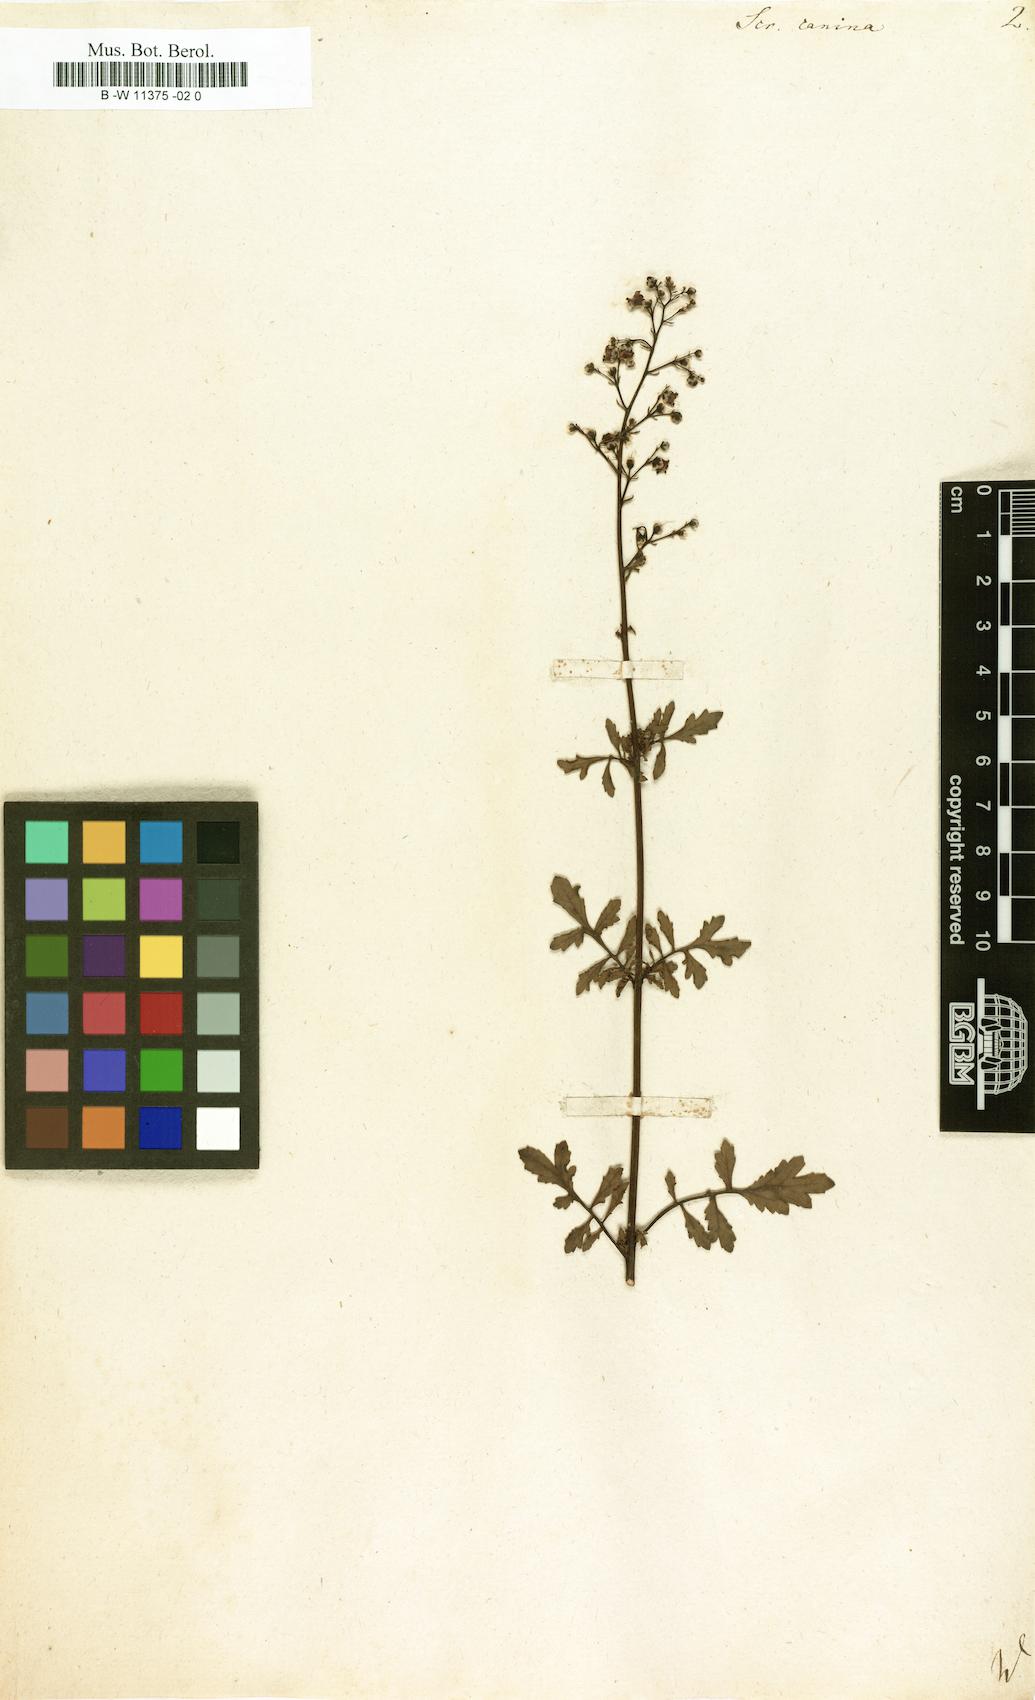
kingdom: Plantae
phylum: Tracheophyta
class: Magnoliopsida
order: Lamiales
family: Scrophulariaceae
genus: Scrophularia
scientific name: Scrophularia canina
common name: French figwort
